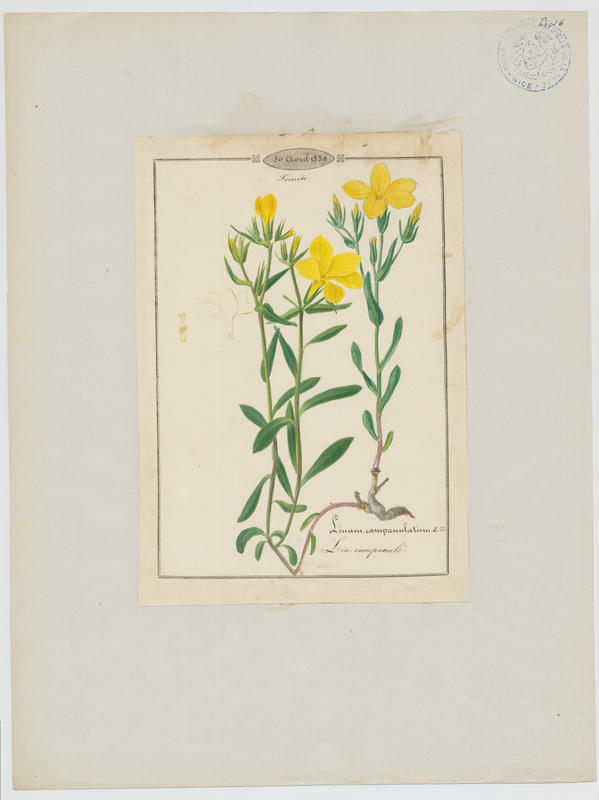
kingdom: Plantae
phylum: Tracheophyta
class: Magnoliopsida
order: Malpighiales
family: Linaceae
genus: Linum
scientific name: Linum campanulatum
